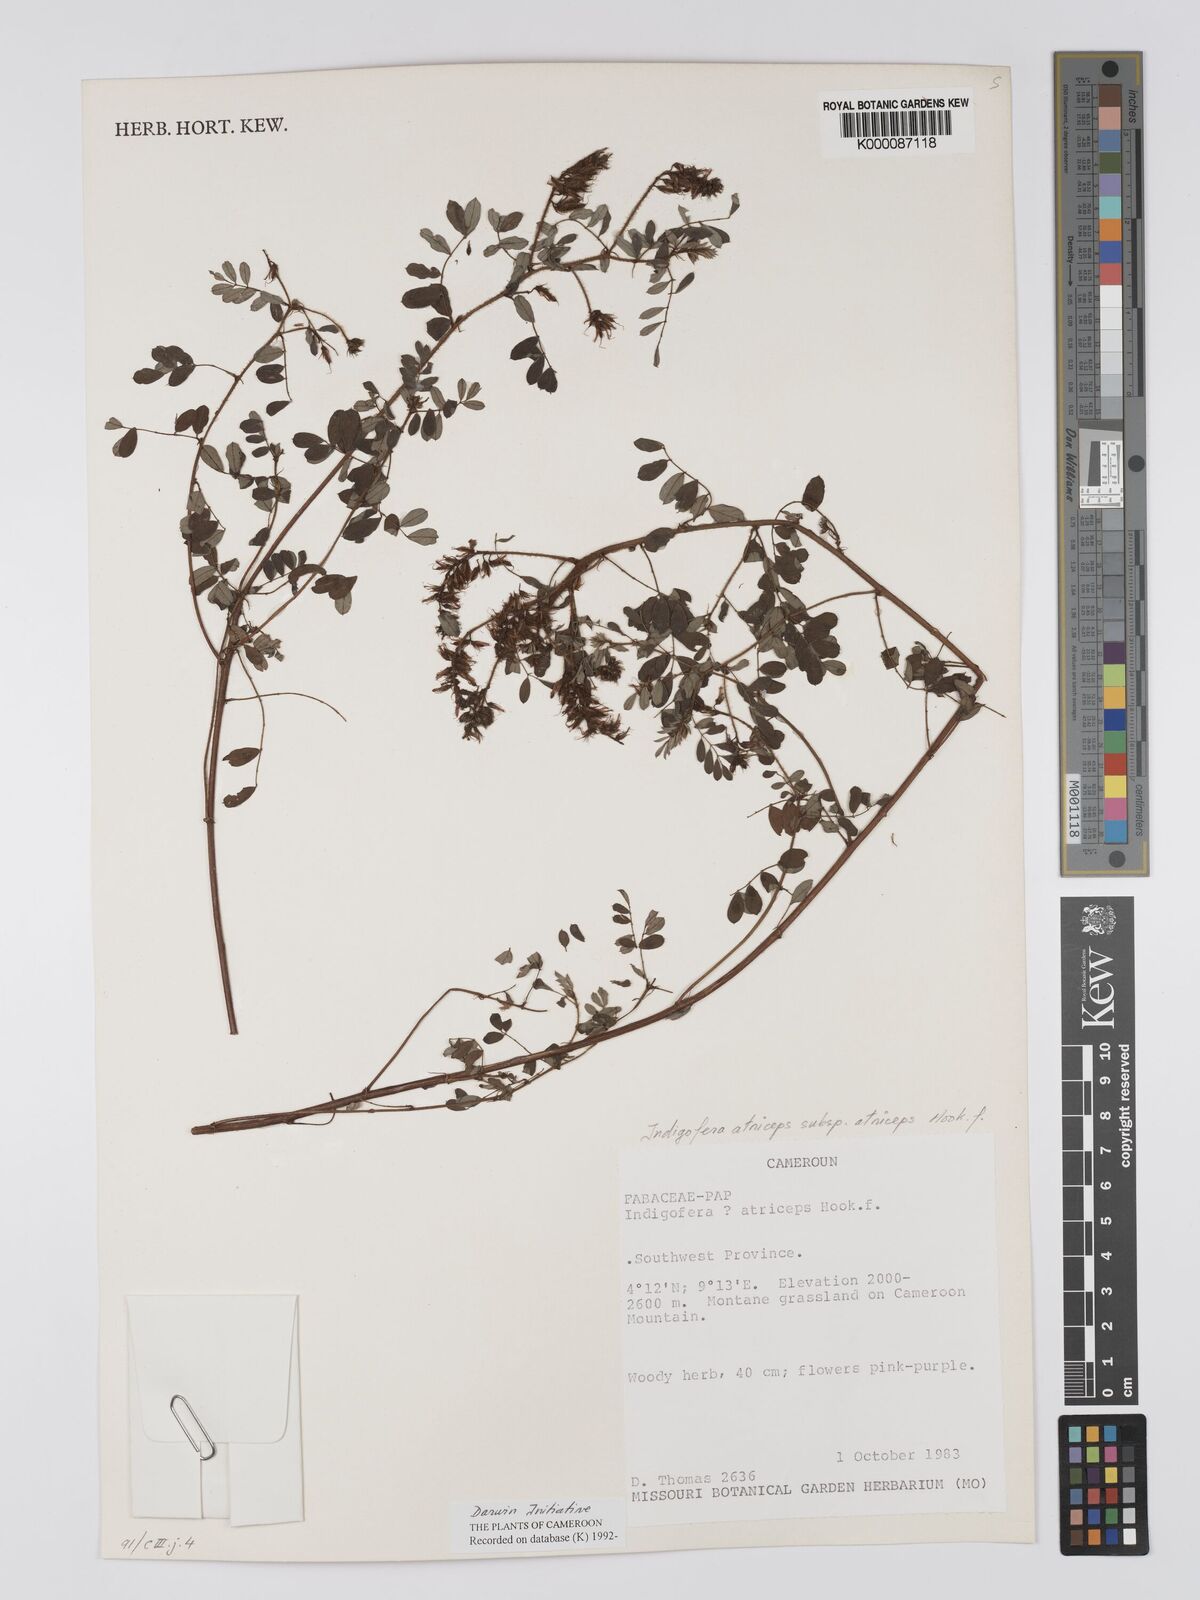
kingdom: Plantae
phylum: Tracheophyta
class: Magnoliopsida
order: Fabales
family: Fabaceae
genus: Indigofera
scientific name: Indigofera atriceps
